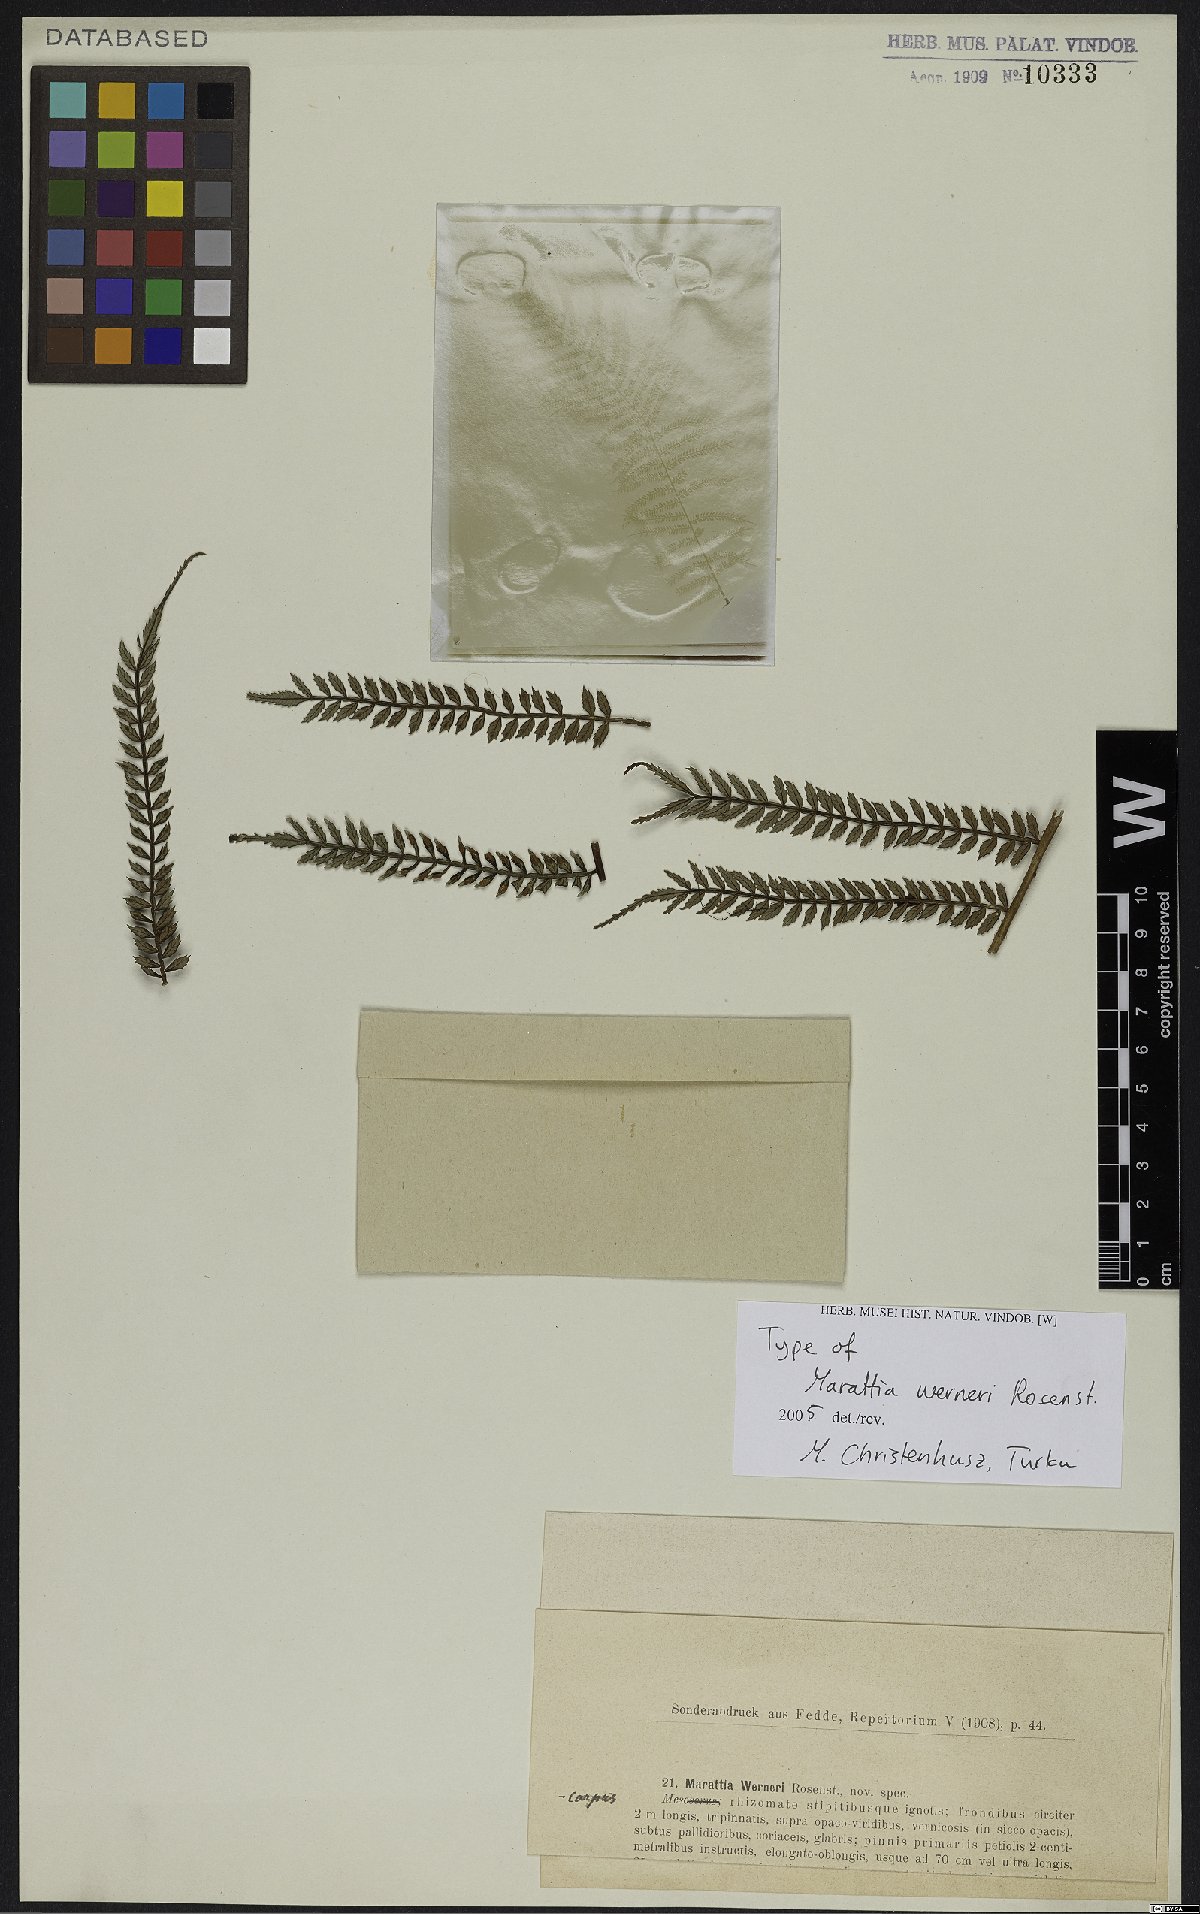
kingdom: Plantae
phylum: Tracheophyta
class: Polypodiopsida
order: Marattiales
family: Marattiaceae
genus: Ptisana
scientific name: Ptisana melanesica
